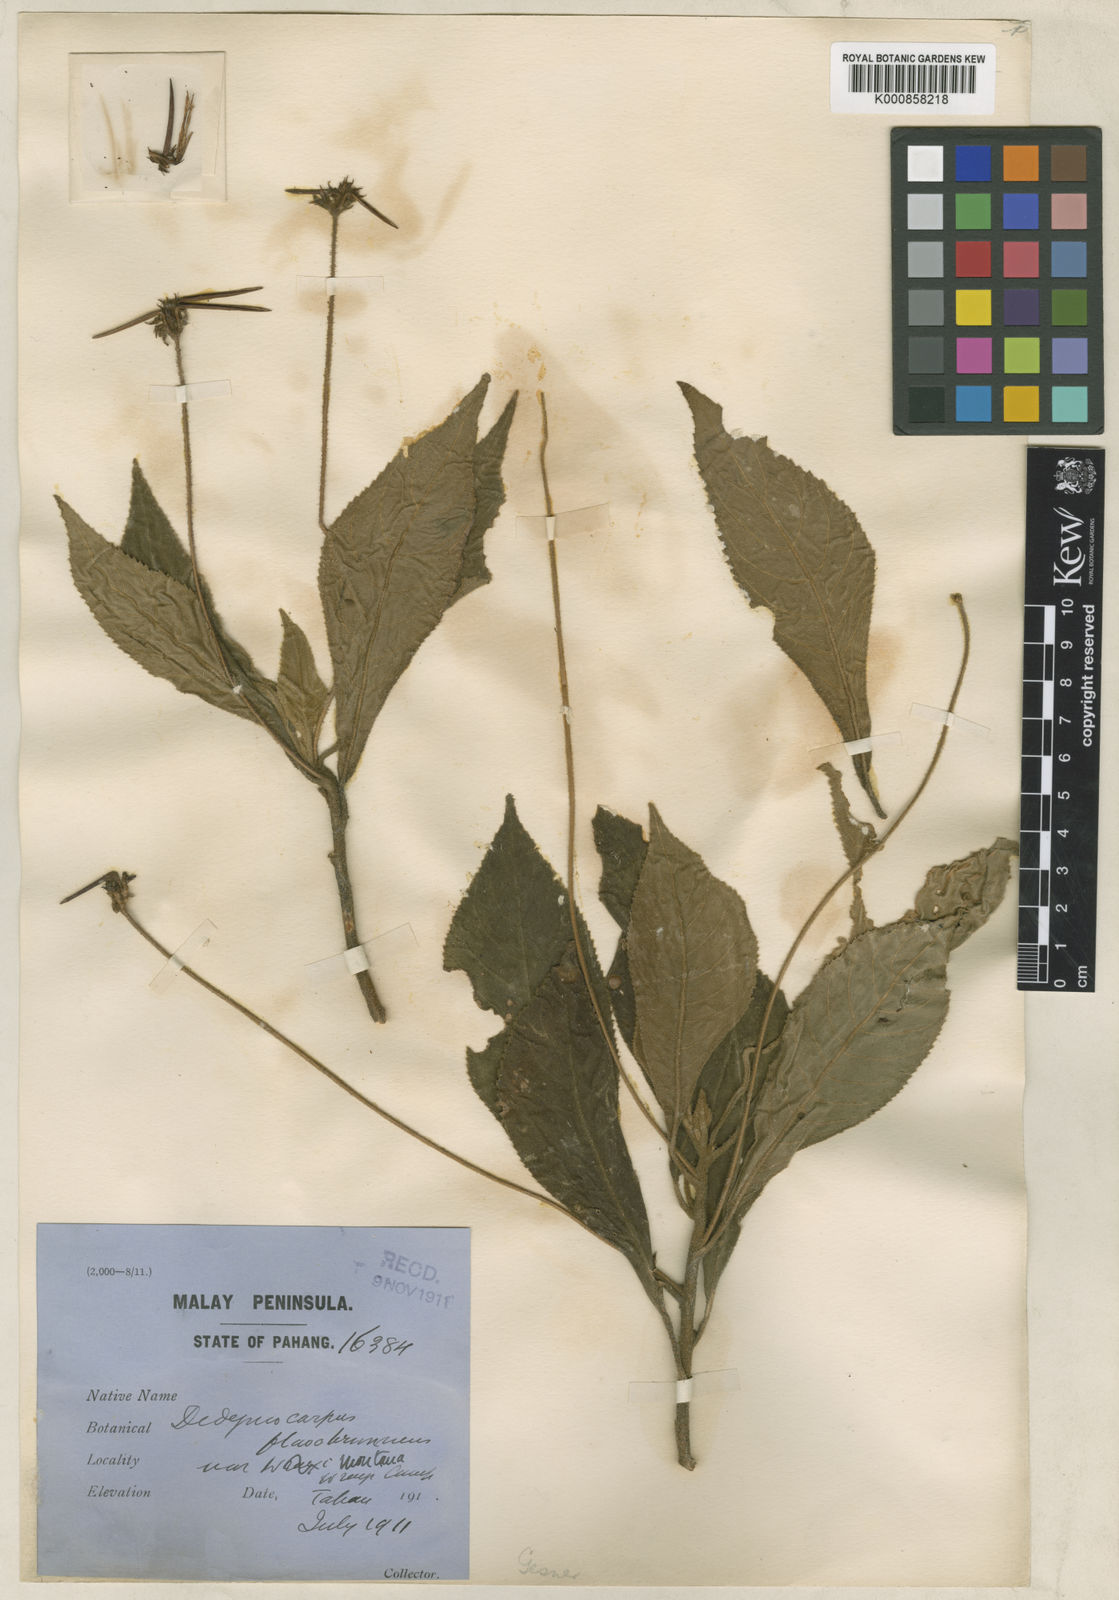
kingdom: Plantae
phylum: Tracheophyta
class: Magnoliopsida
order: Lamiales
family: Gesneriaceae
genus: Codonoboea
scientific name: Codonoboea flavobrunnea
